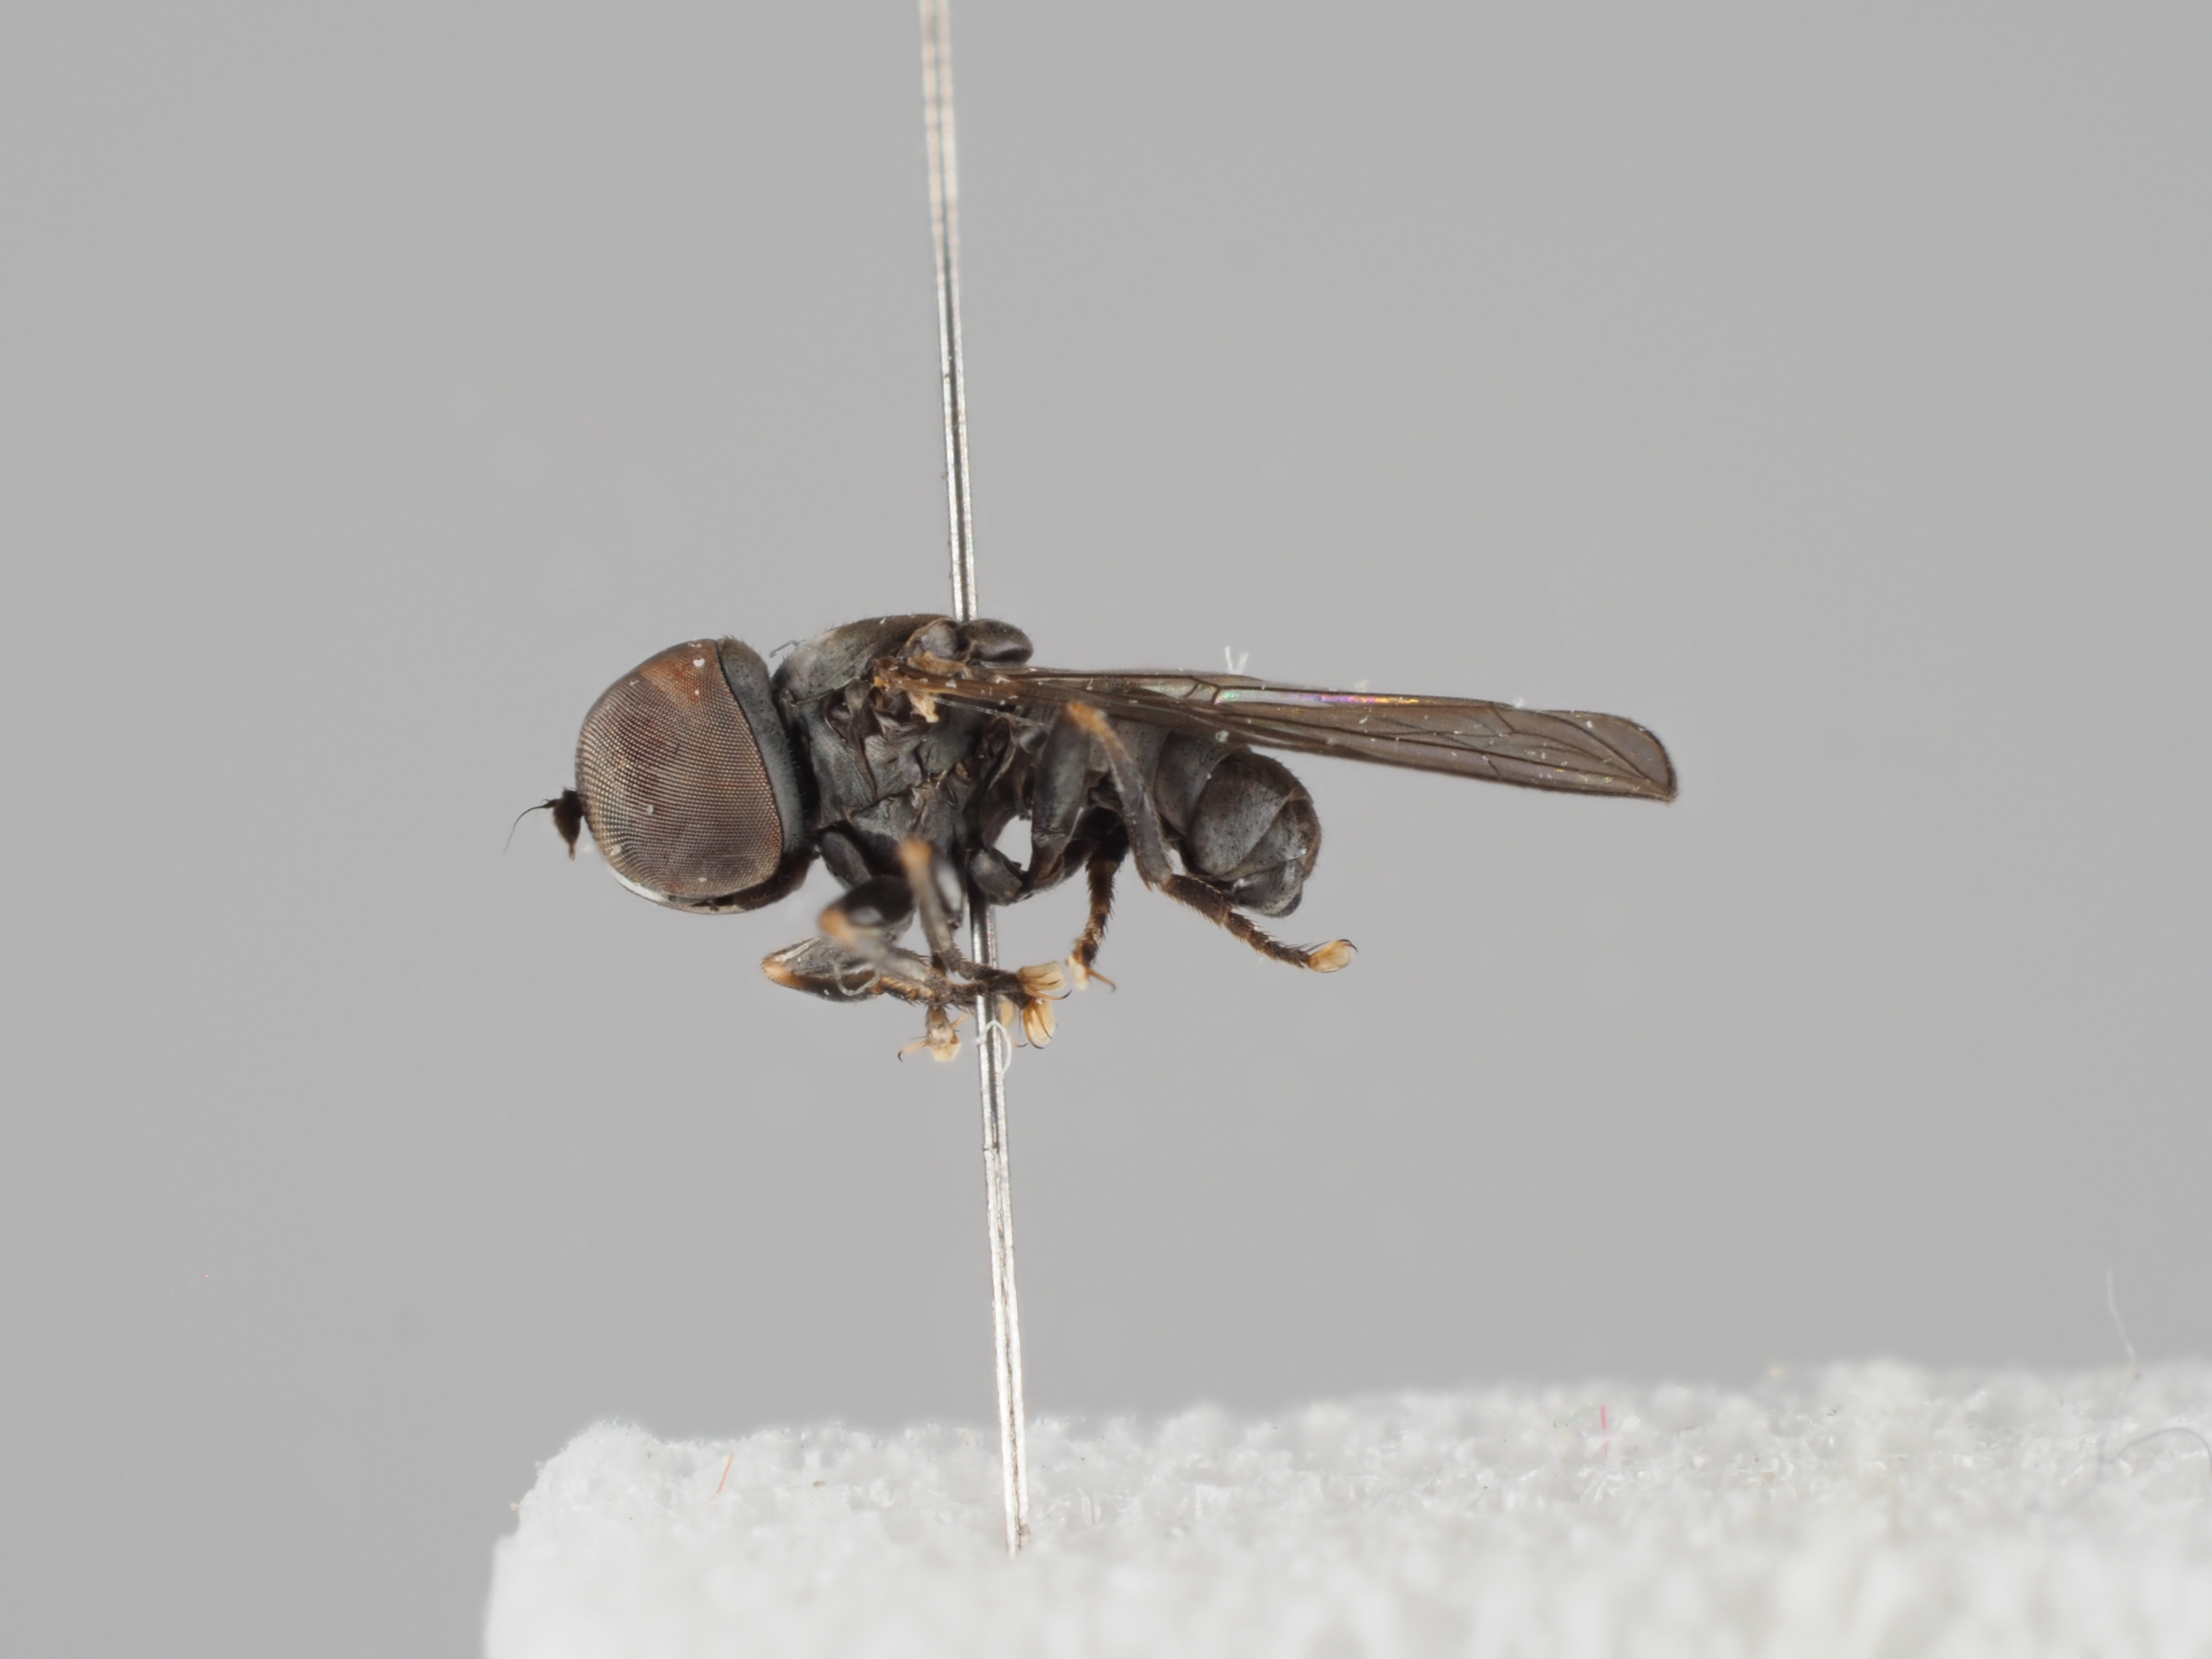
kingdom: Animalia
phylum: Arthropoda
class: Insecta
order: Diptera
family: Pipunculidae
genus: Eudorylas
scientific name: Eudorylas goennersdorfensis
